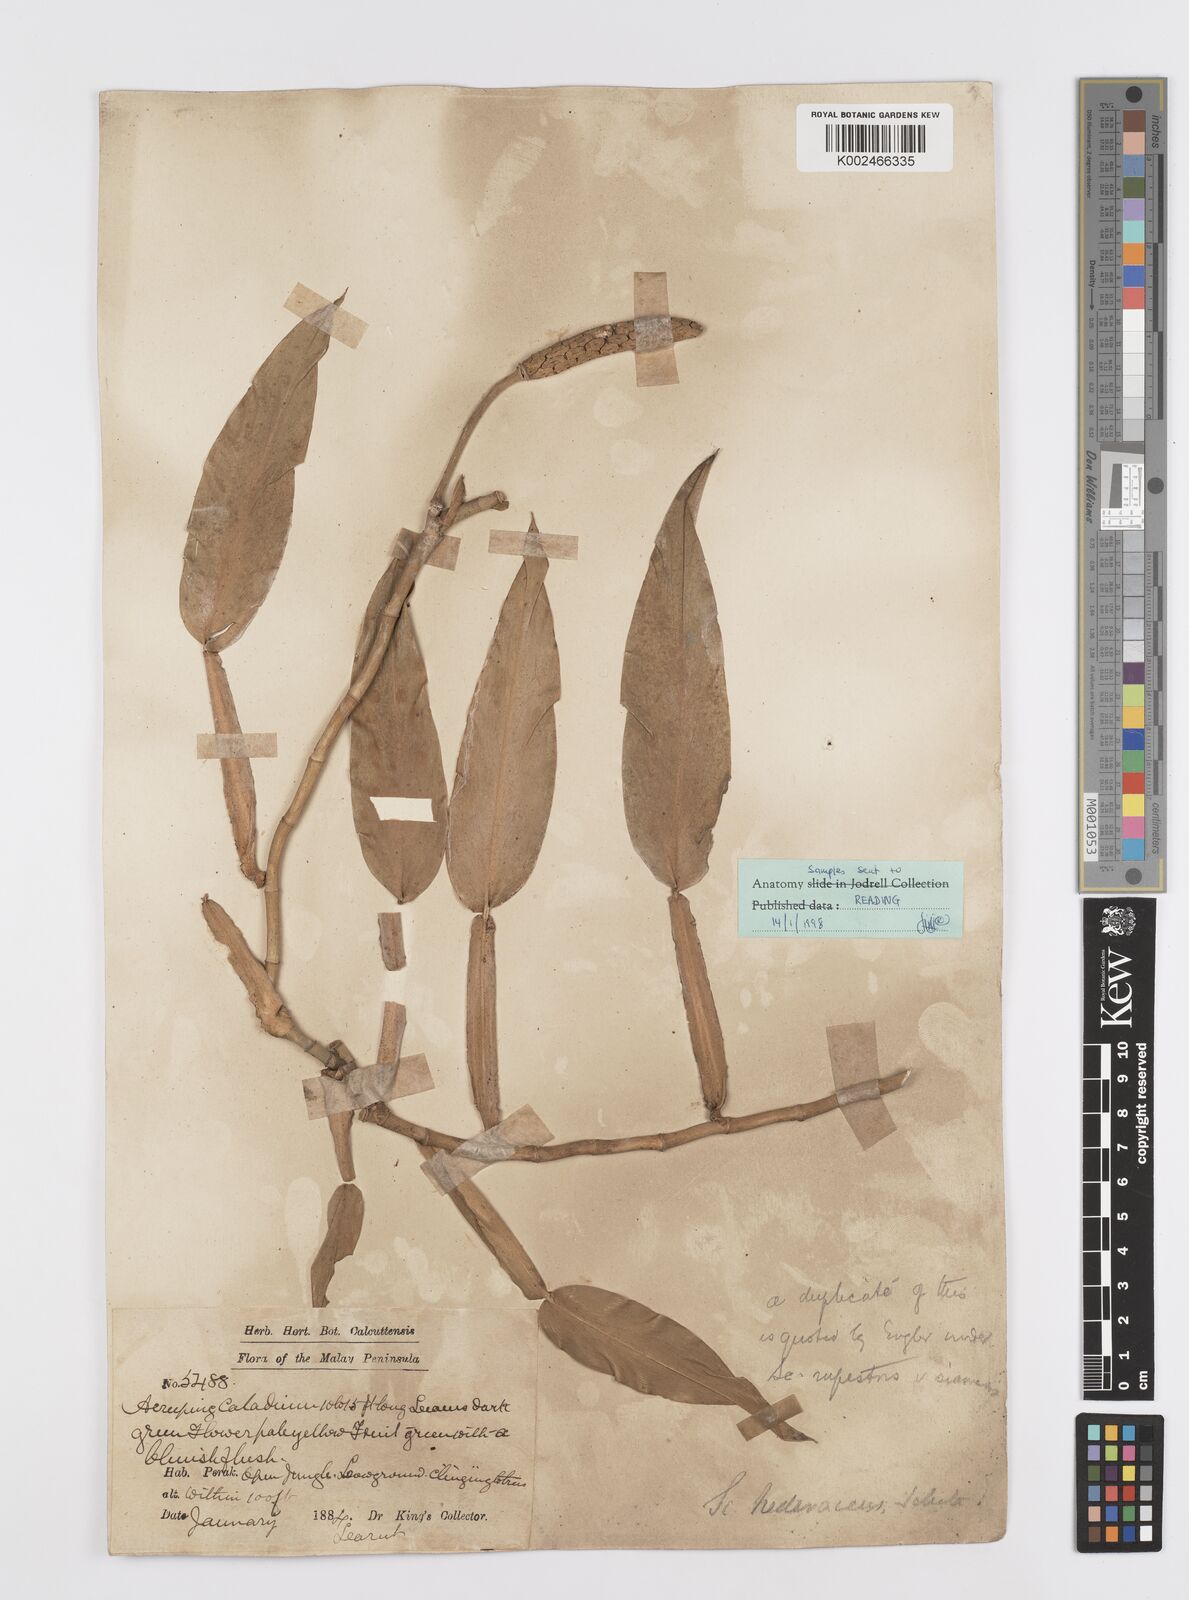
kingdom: Plantae
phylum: Tracheophyta
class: Liliopsida
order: Alismatales
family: Araceae
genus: Scindapsus
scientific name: Scindapsus hederaceus
